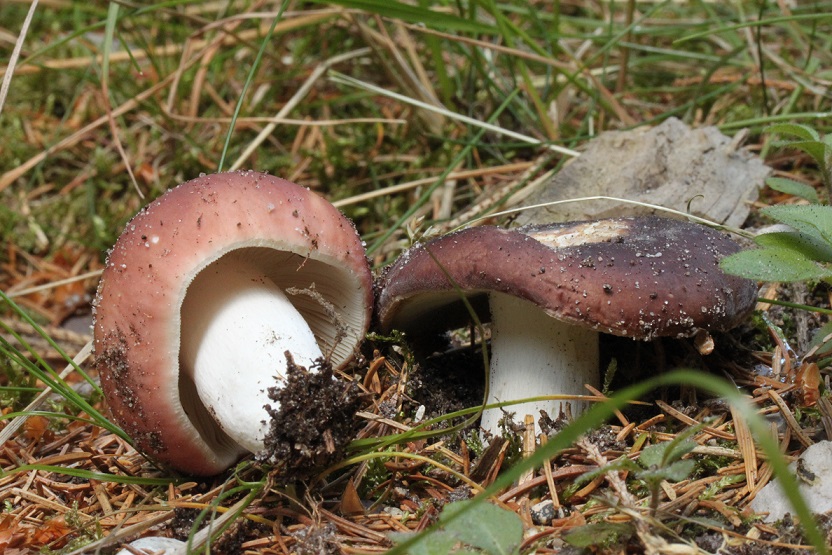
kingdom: Fungi
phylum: Basidiomycota
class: Agaricomycetes
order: Russulales
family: Russulaceae
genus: Russula
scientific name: Russula vesca
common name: spiselig skørhat
